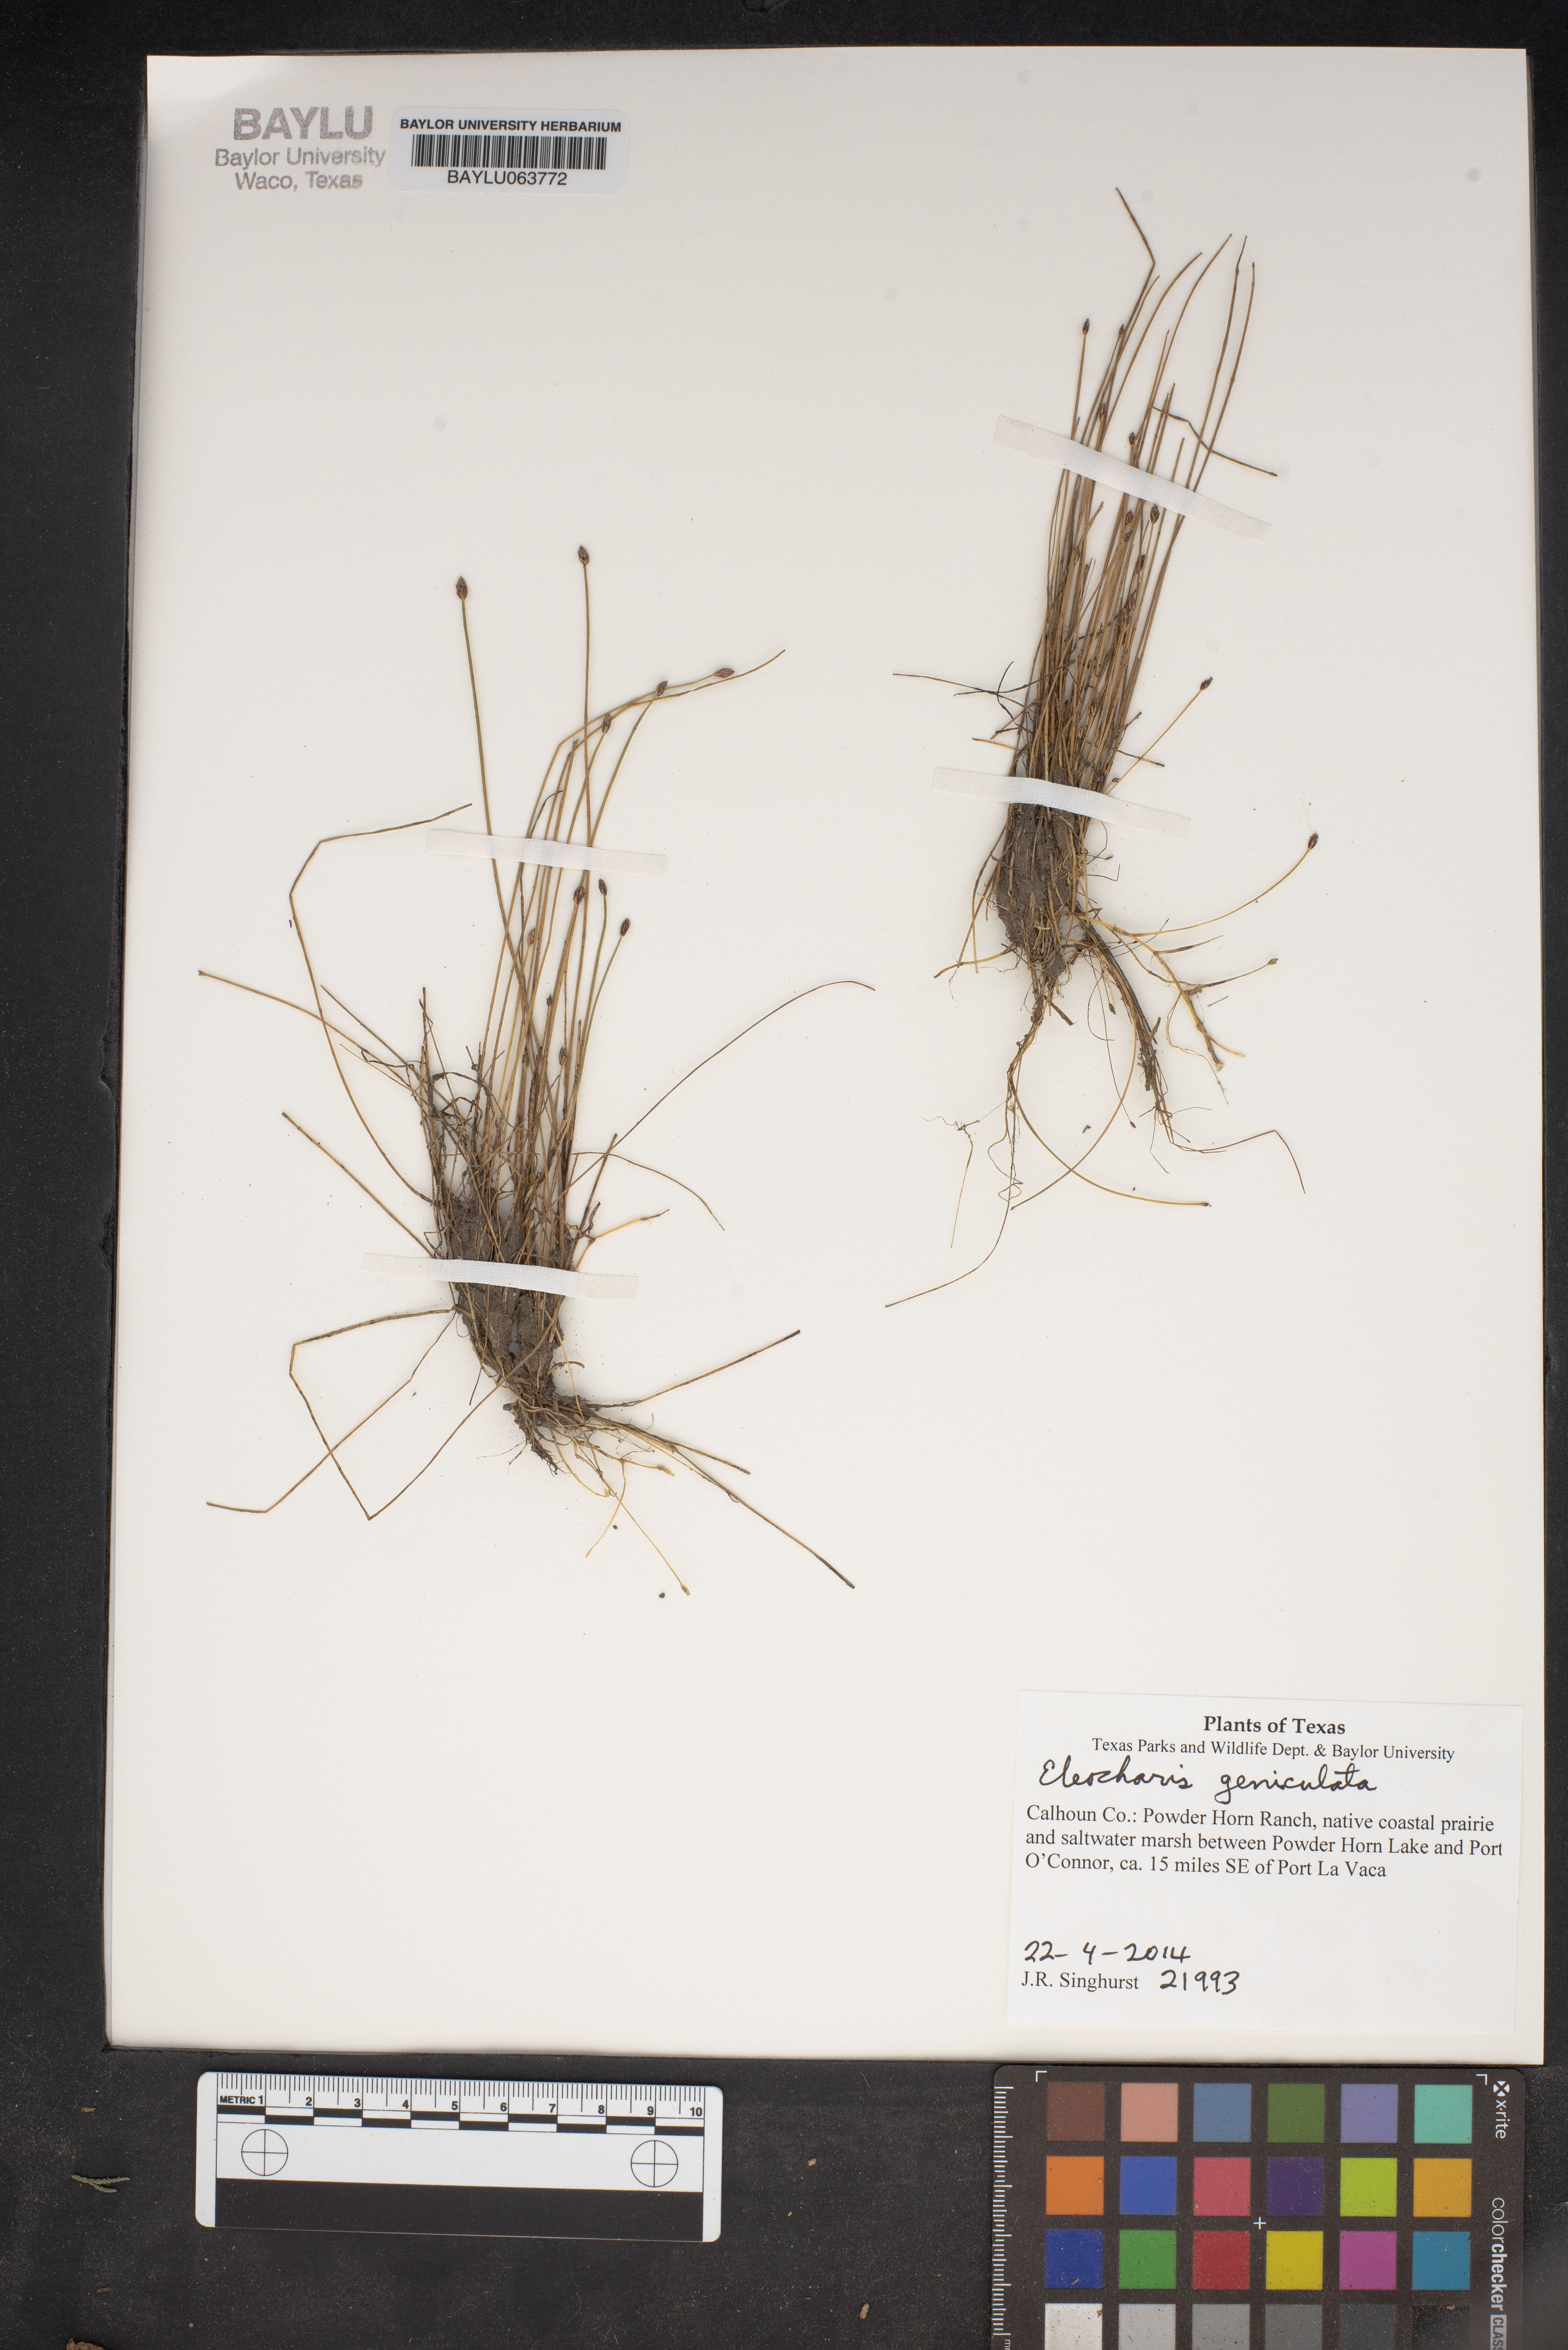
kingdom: Plantae
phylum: Tracheophyta
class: Liliopsida
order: Poales
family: Cyperaceae
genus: Eleocharis
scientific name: Eleocharis geniculata
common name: Canada spikesedge
